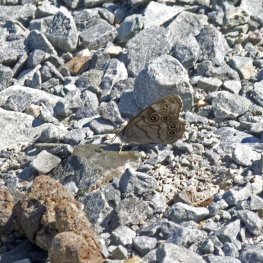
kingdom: Animalia
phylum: Arthropoda
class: Insecta
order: Lepidoptera
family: Nymphalidae
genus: Lethe
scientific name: Lethe anthedon
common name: Northern Pearly-Eye
